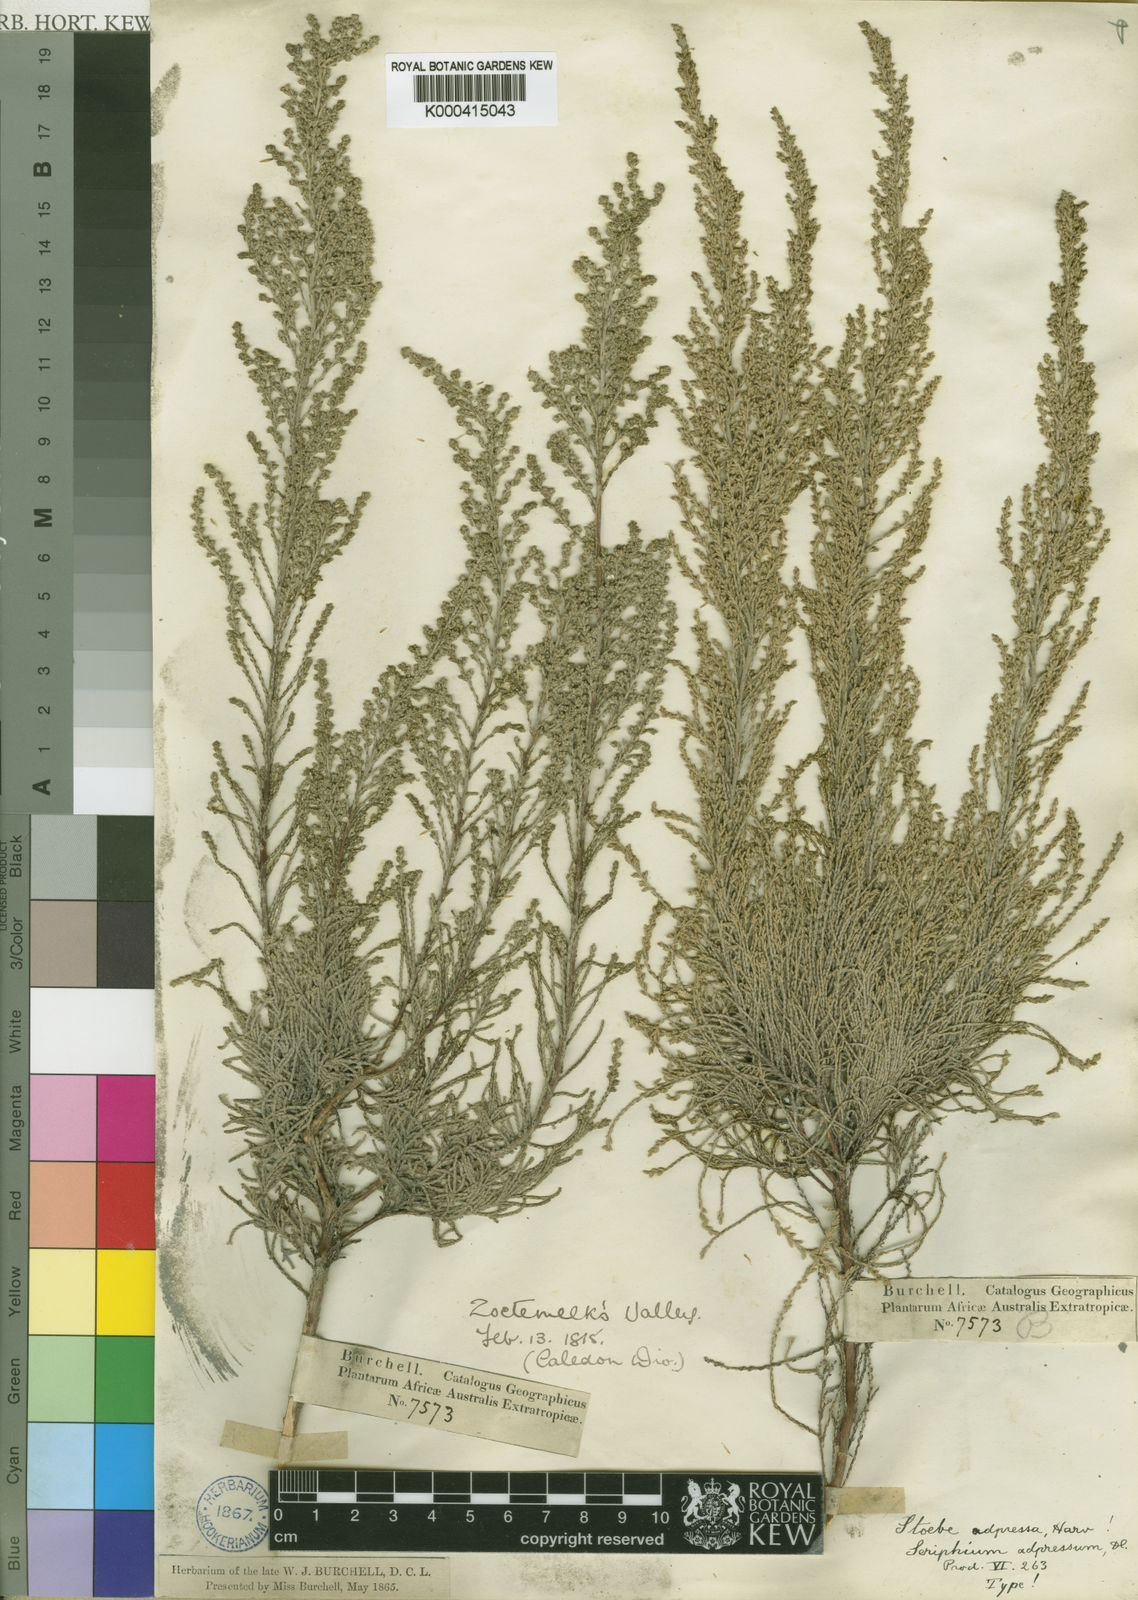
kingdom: Plantae
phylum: Tracheophyta
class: Magnoliopsida
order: Asterales
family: Asteraceae
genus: Dicerothamnus
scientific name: Dicerothamnus rhinocerotis
